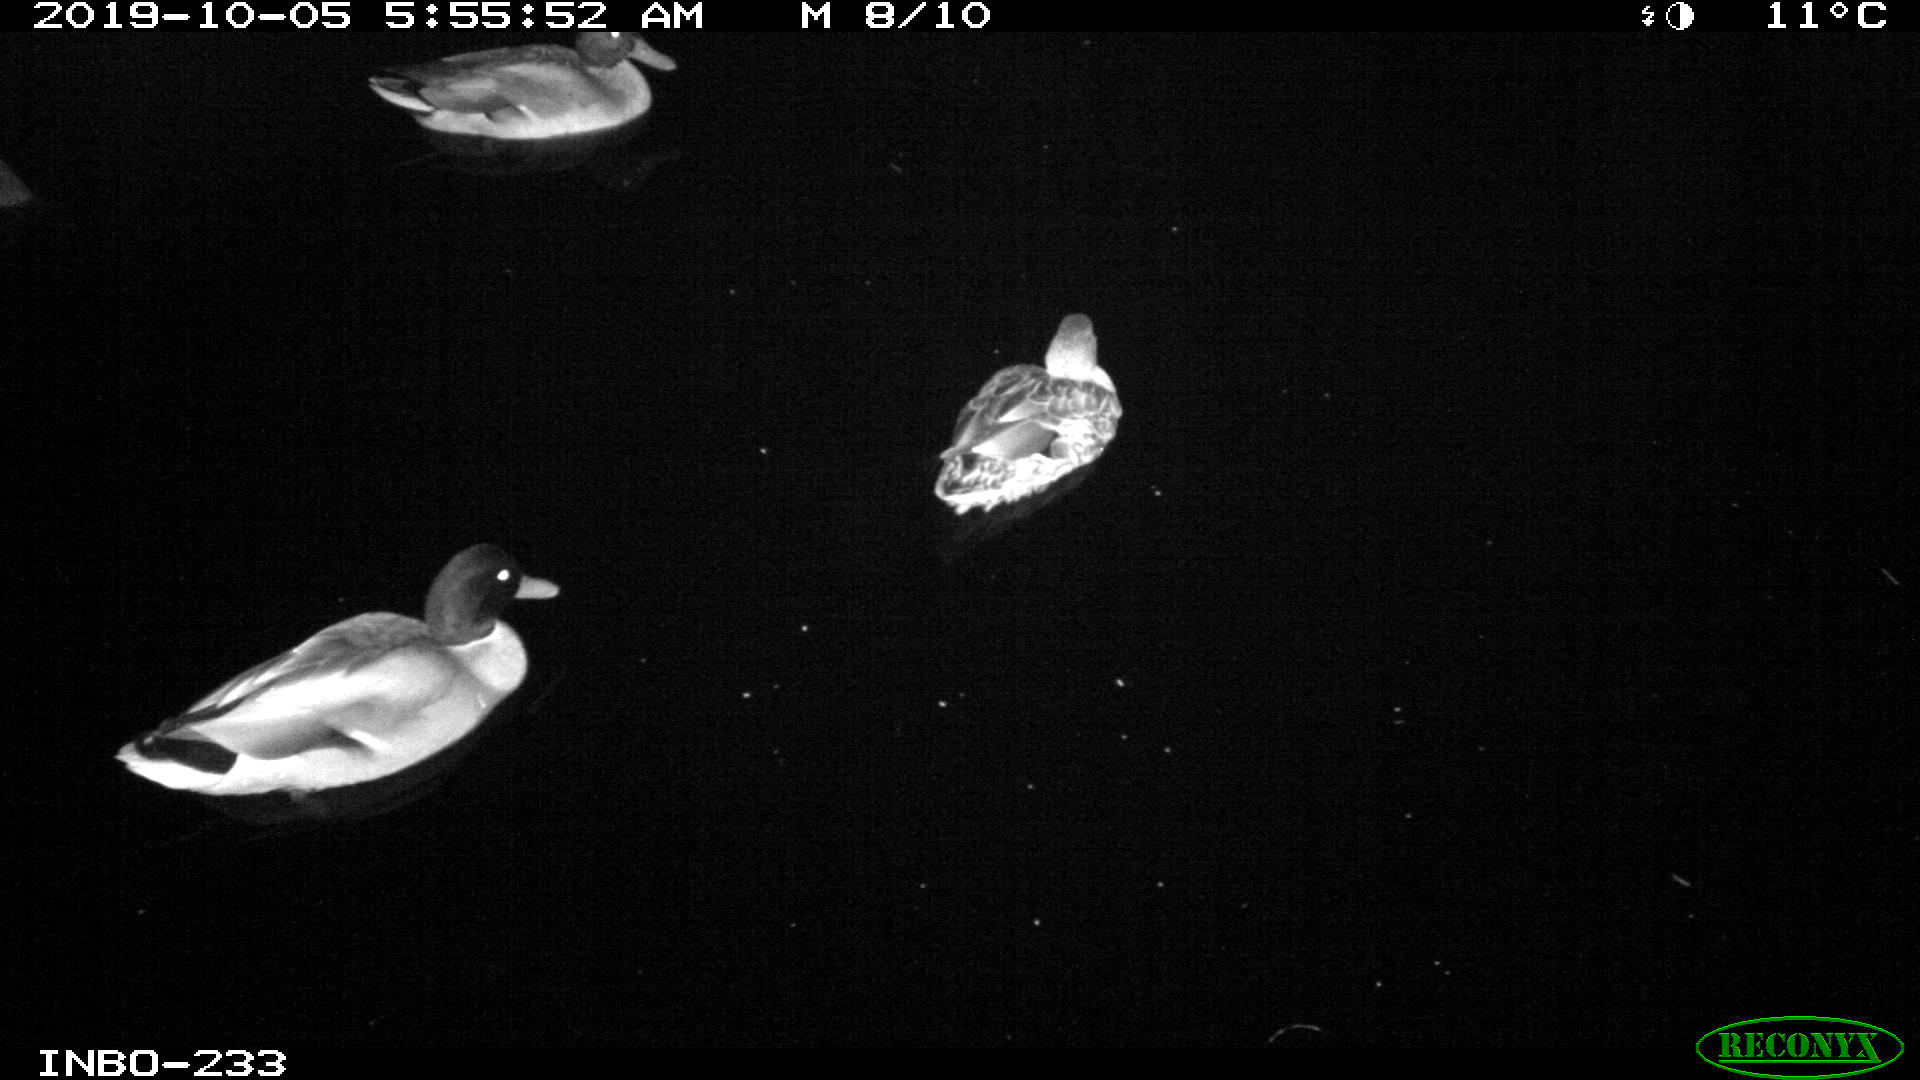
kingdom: Animalia
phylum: Chordata
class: Aves
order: Anseriformes
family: Anatidae
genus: Anas
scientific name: Anas platyrhynchos
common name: Mallard
